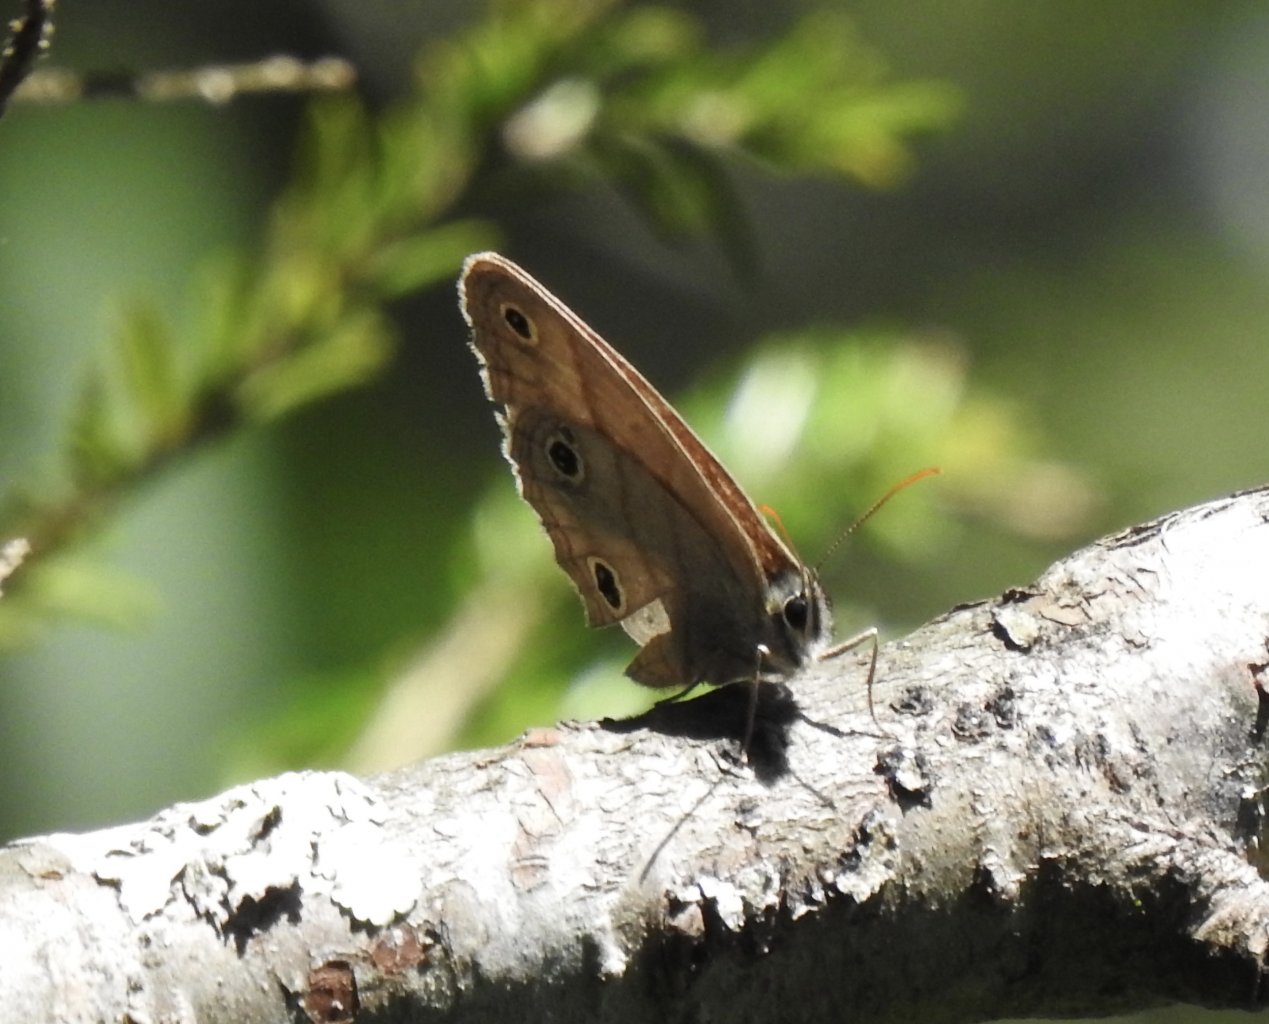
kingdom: Animalia
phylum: Arthropoda
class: Insecta
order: Lepidoptera
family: Nymphalidae
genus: Euptychia
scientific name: Euptychia cymela
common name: Little Wood Satyr
